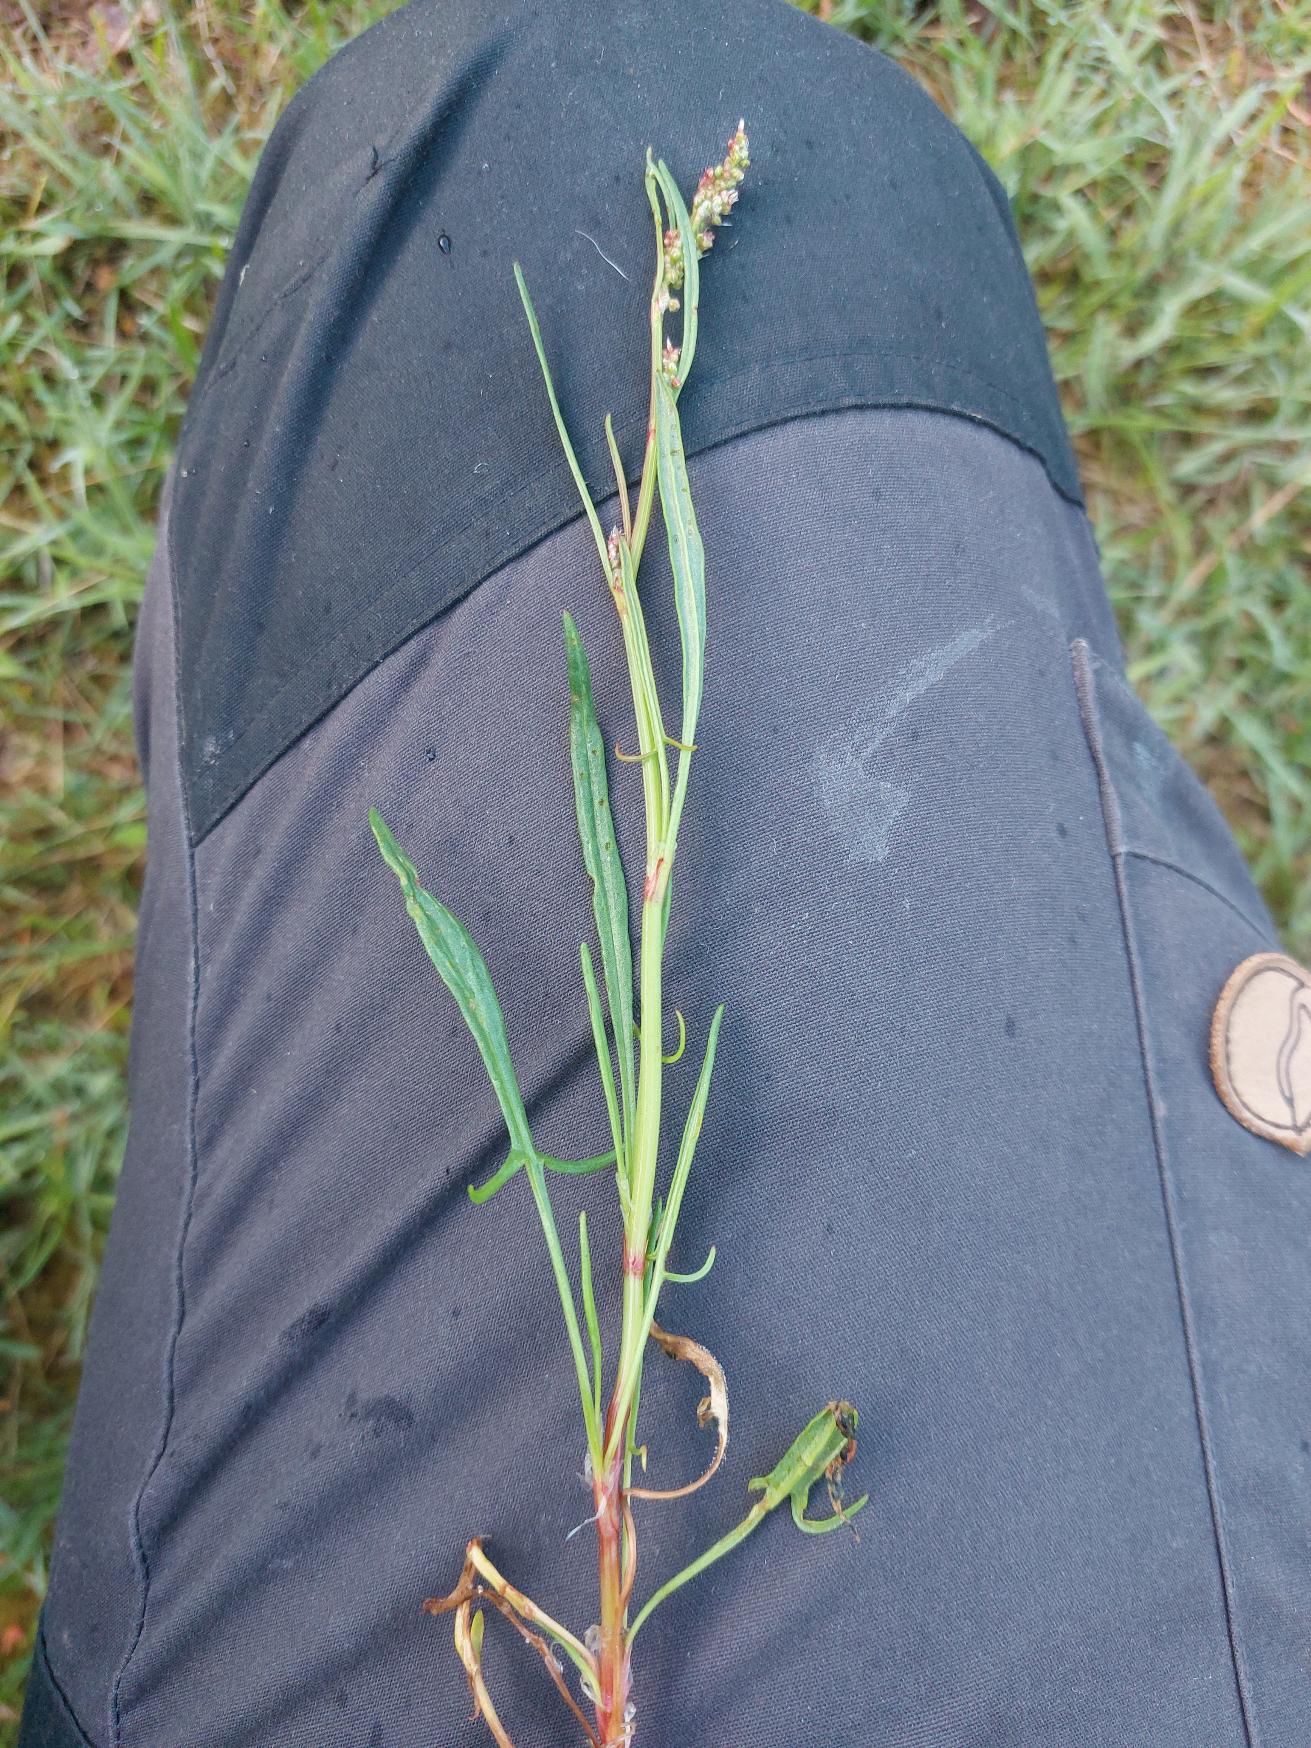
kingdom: Plantae
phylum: Tracheophyta
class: Magnoliopsida
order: Caryophyllales
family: Polygonaceae
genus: Rumex
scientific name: Rumex acetosella
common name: Rødknæ
